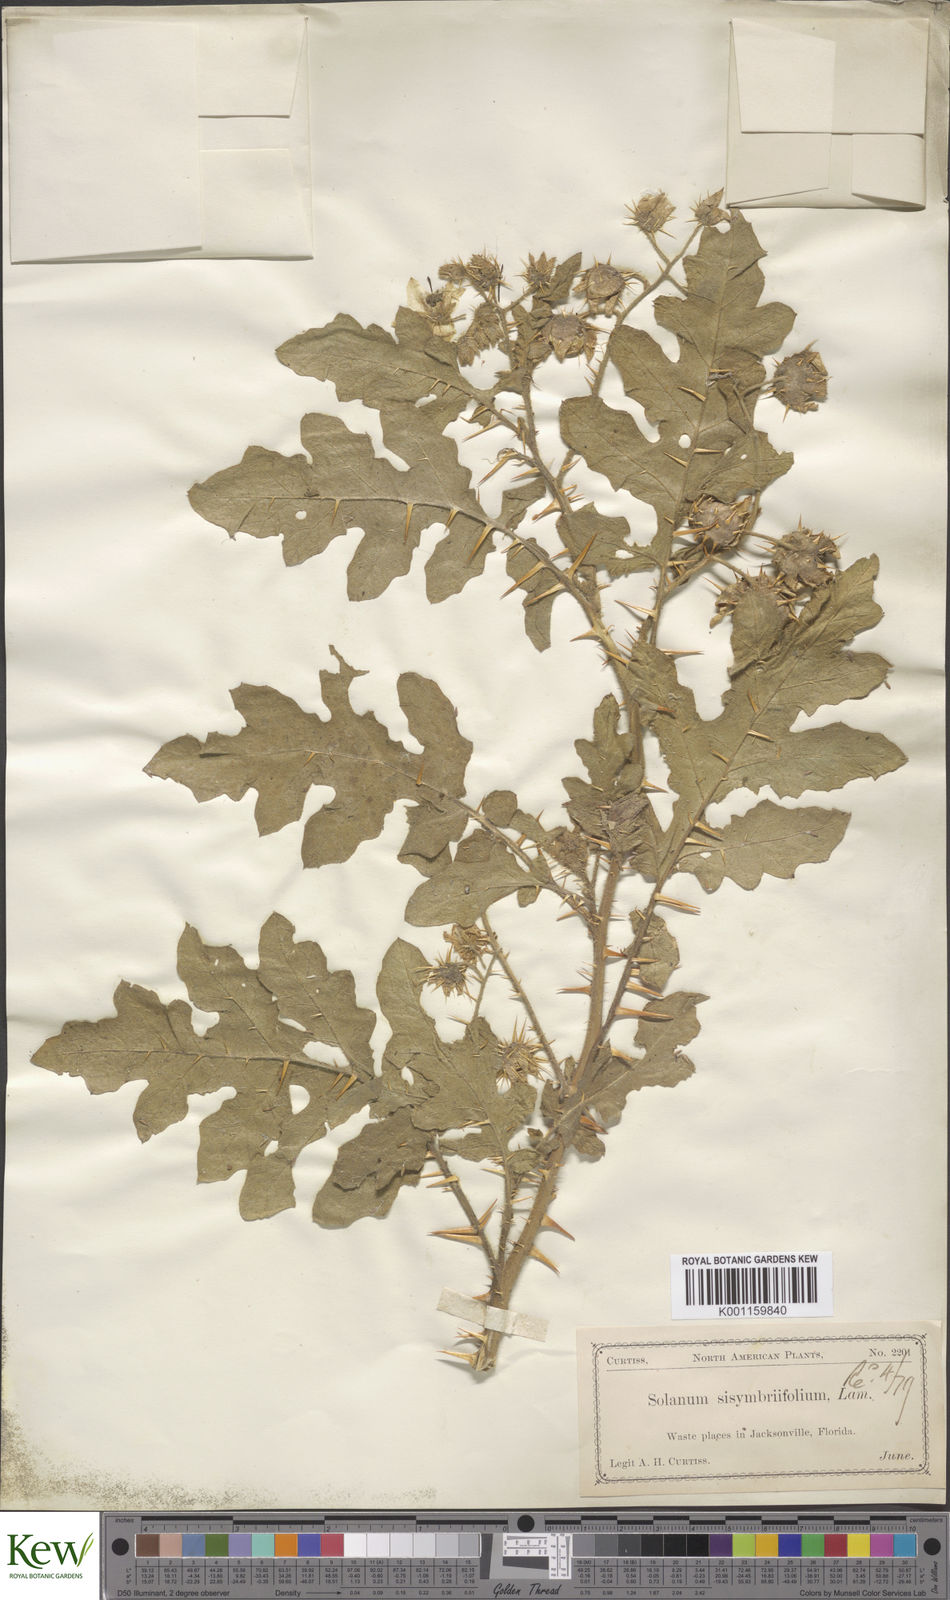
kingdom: Plantae
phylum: Tracheophyta
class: Magnoliopsida
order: Solanales
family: Solanaceae
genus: Solanum
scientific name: Solanum sisymbriifolium
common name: Red buffalo-bur
